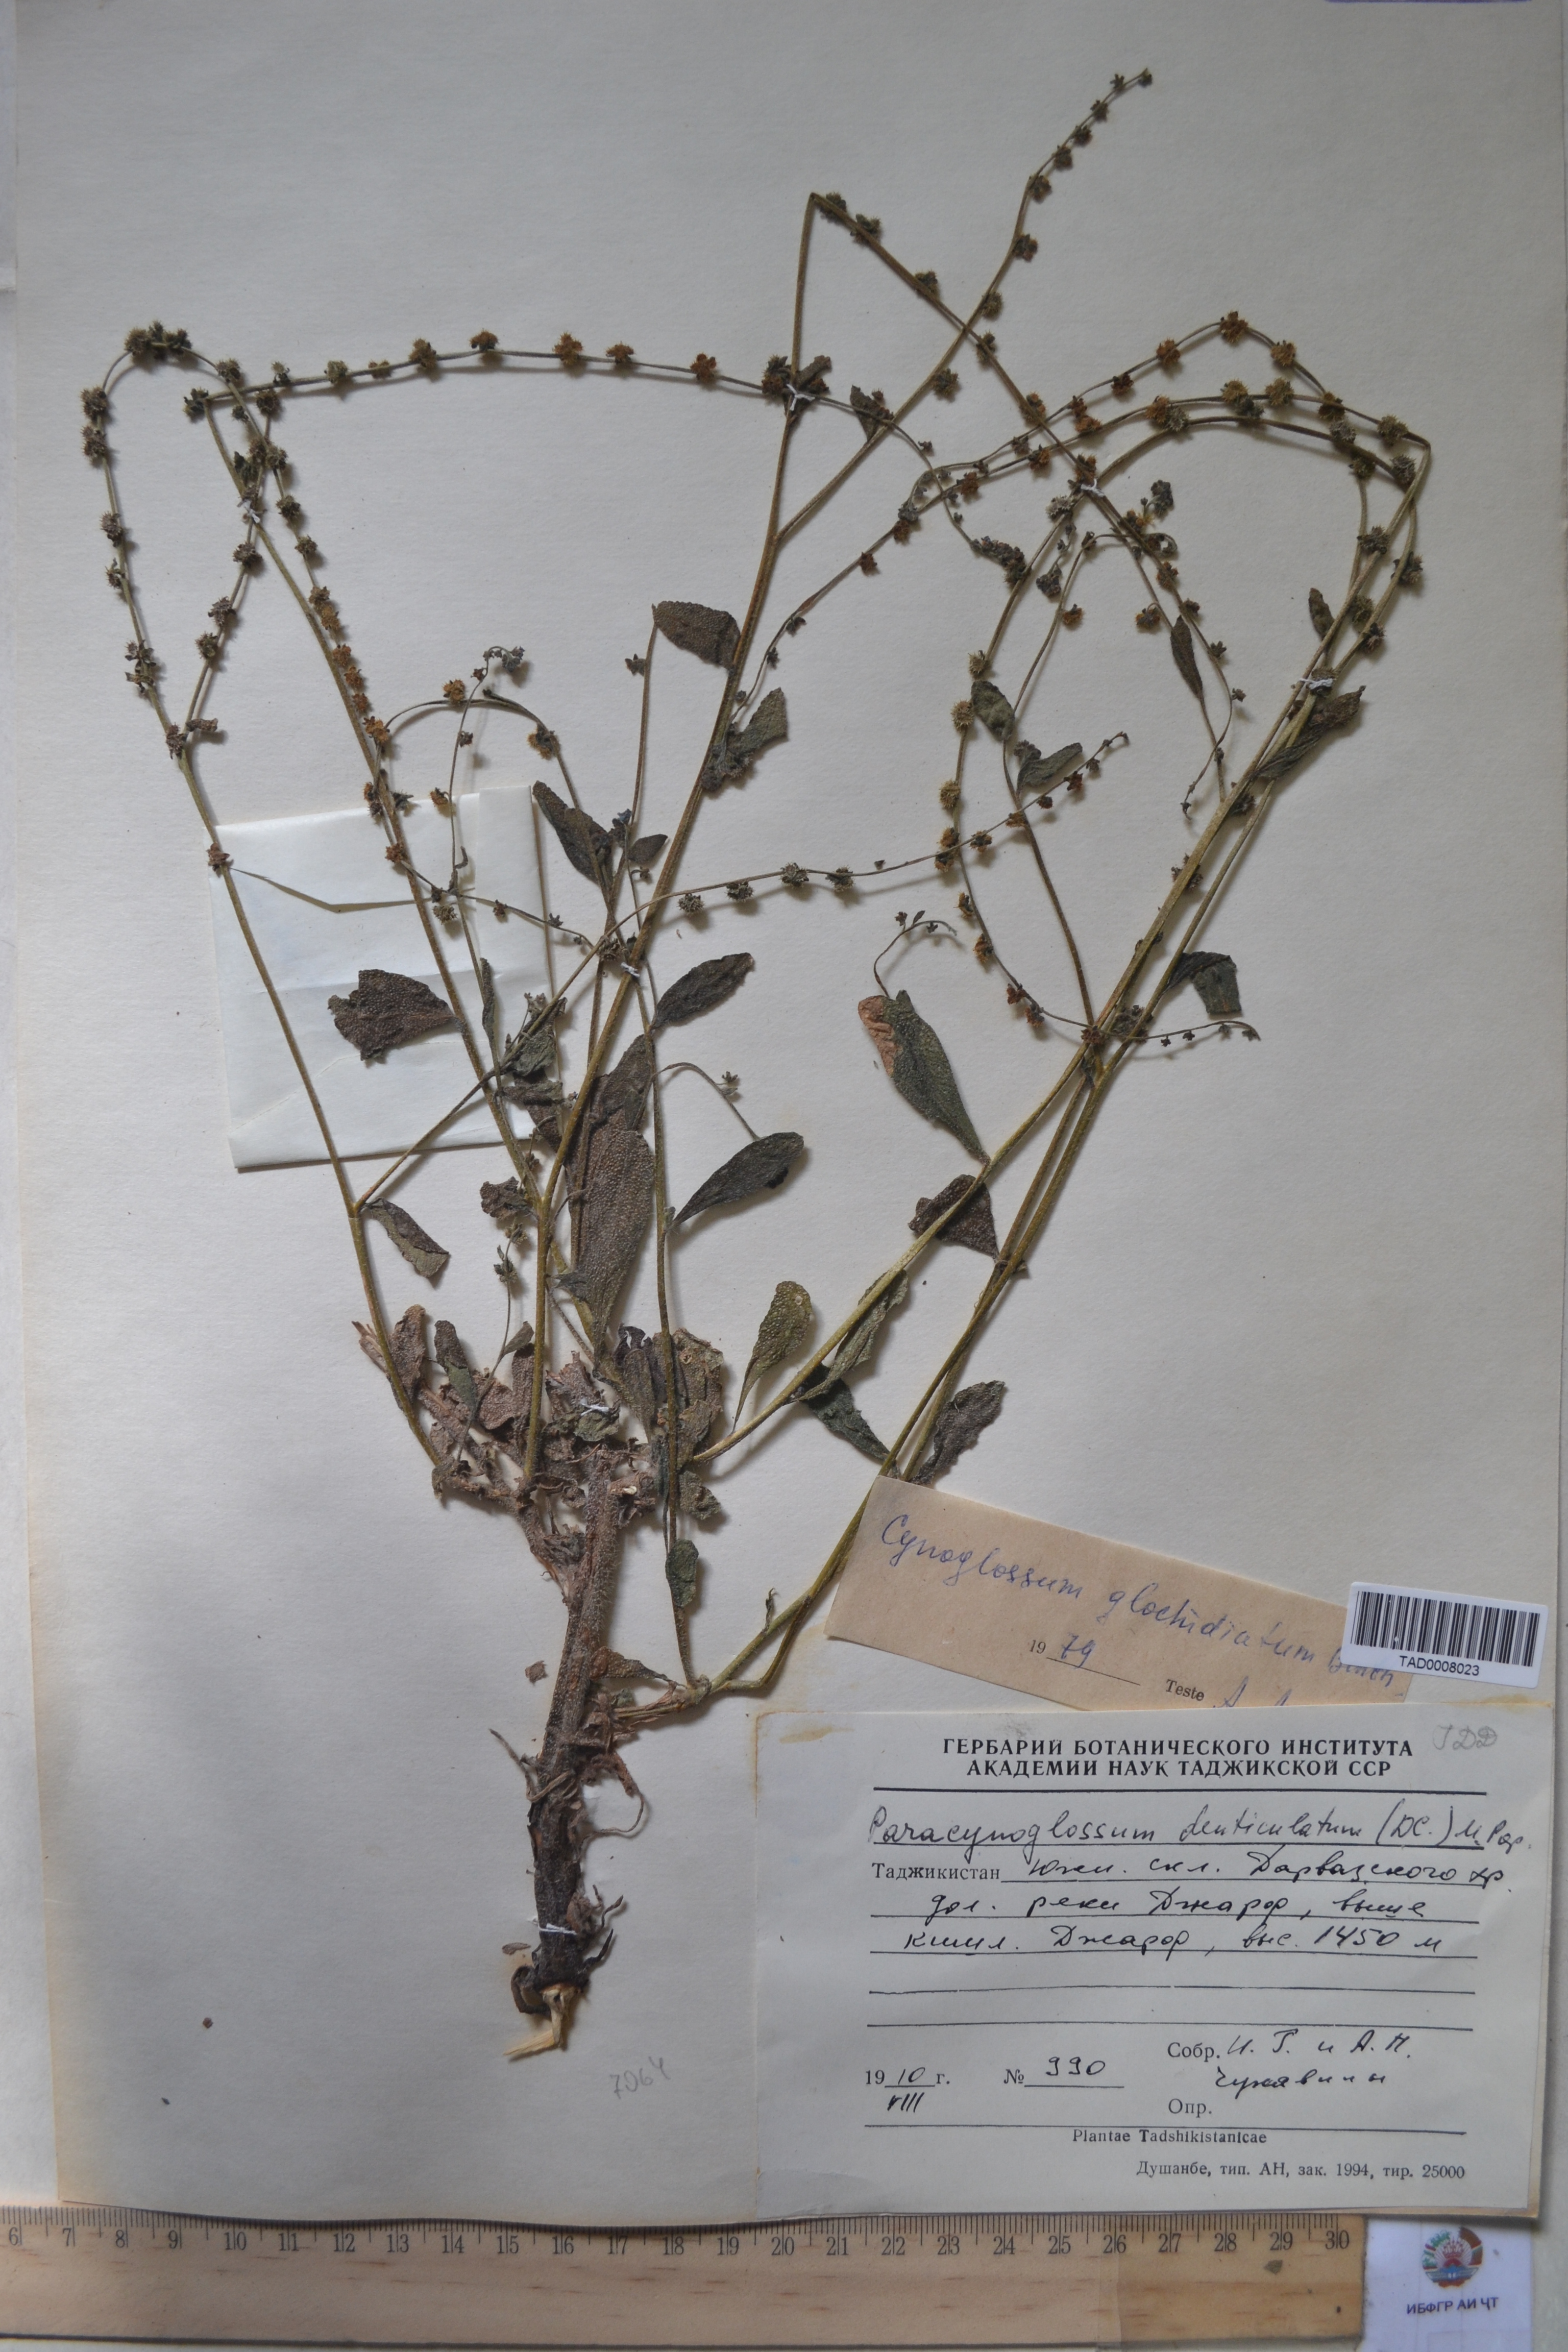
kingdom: Plantae
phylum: Tracheophyta
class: Magnoliopsida
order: Boraginales
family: Boraginaceae
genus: Paracynoglossum
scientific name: Paracynoglossum glochidiatum
